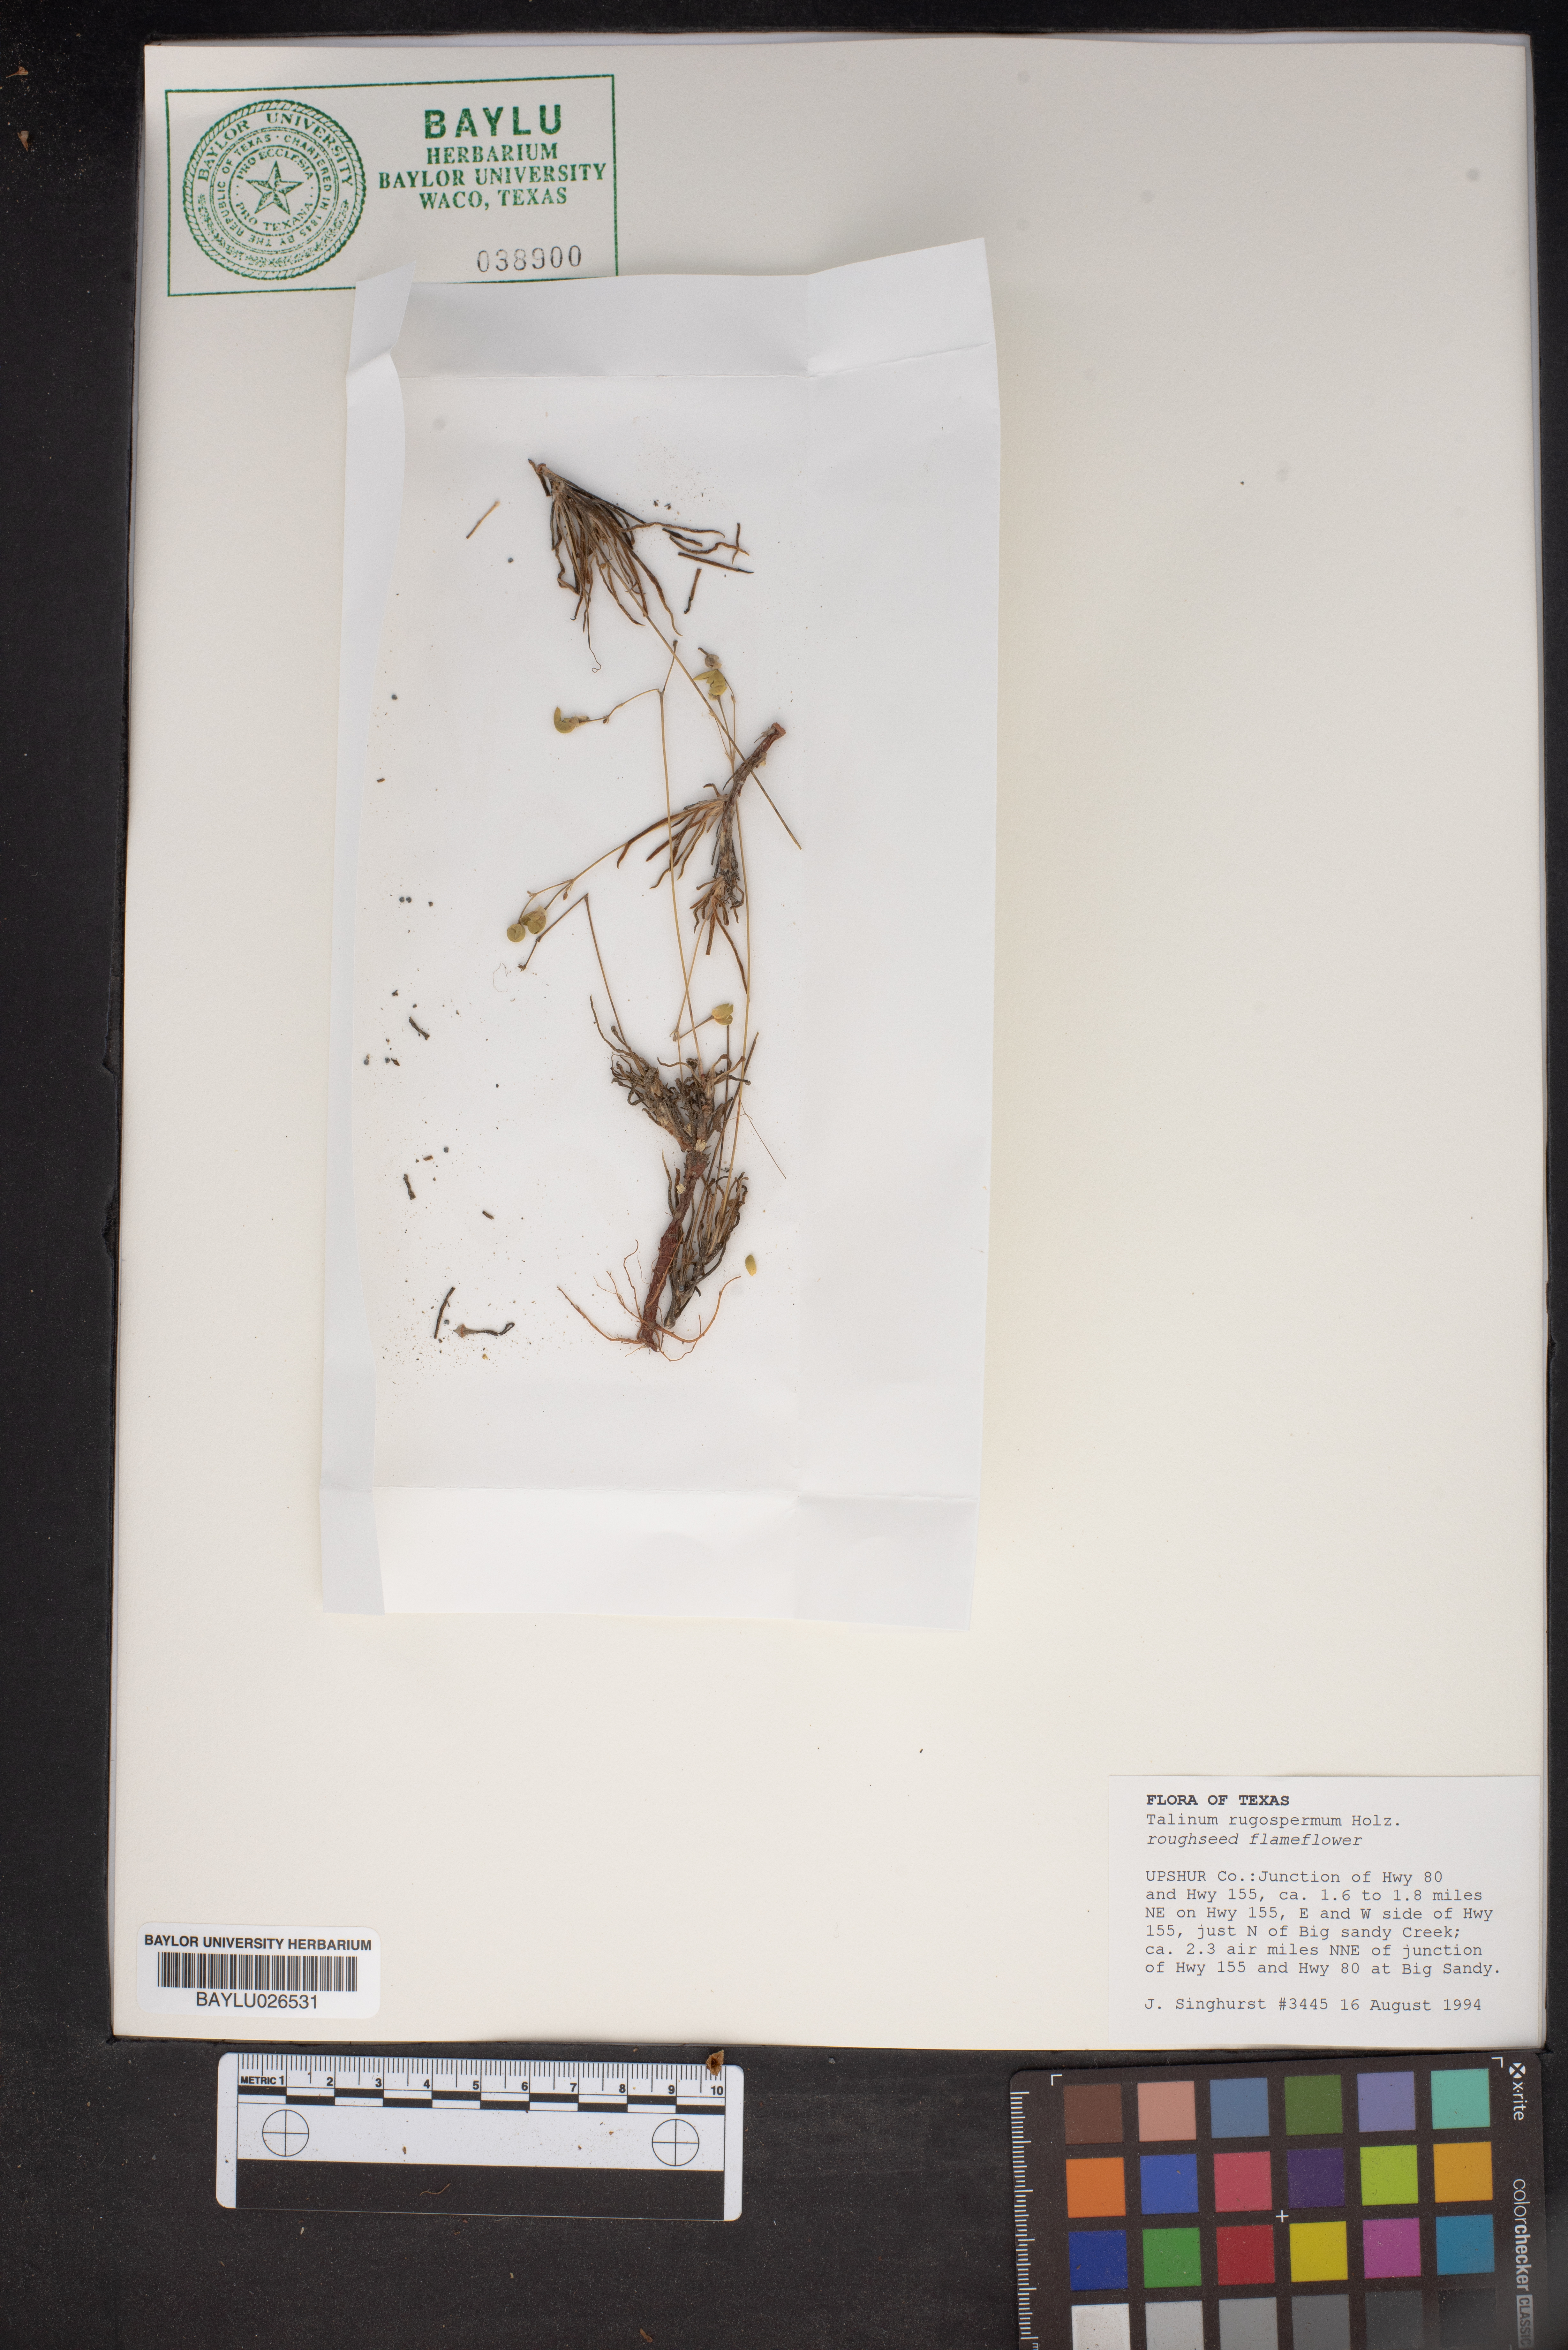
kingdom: Plantae
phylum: Tracheophyta
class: Magnoliopsida
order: Caryophyllales
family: Montiaceae
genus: Phemeranthus
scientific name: Phemeranthus rugospermus
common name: Prairie fameflower
